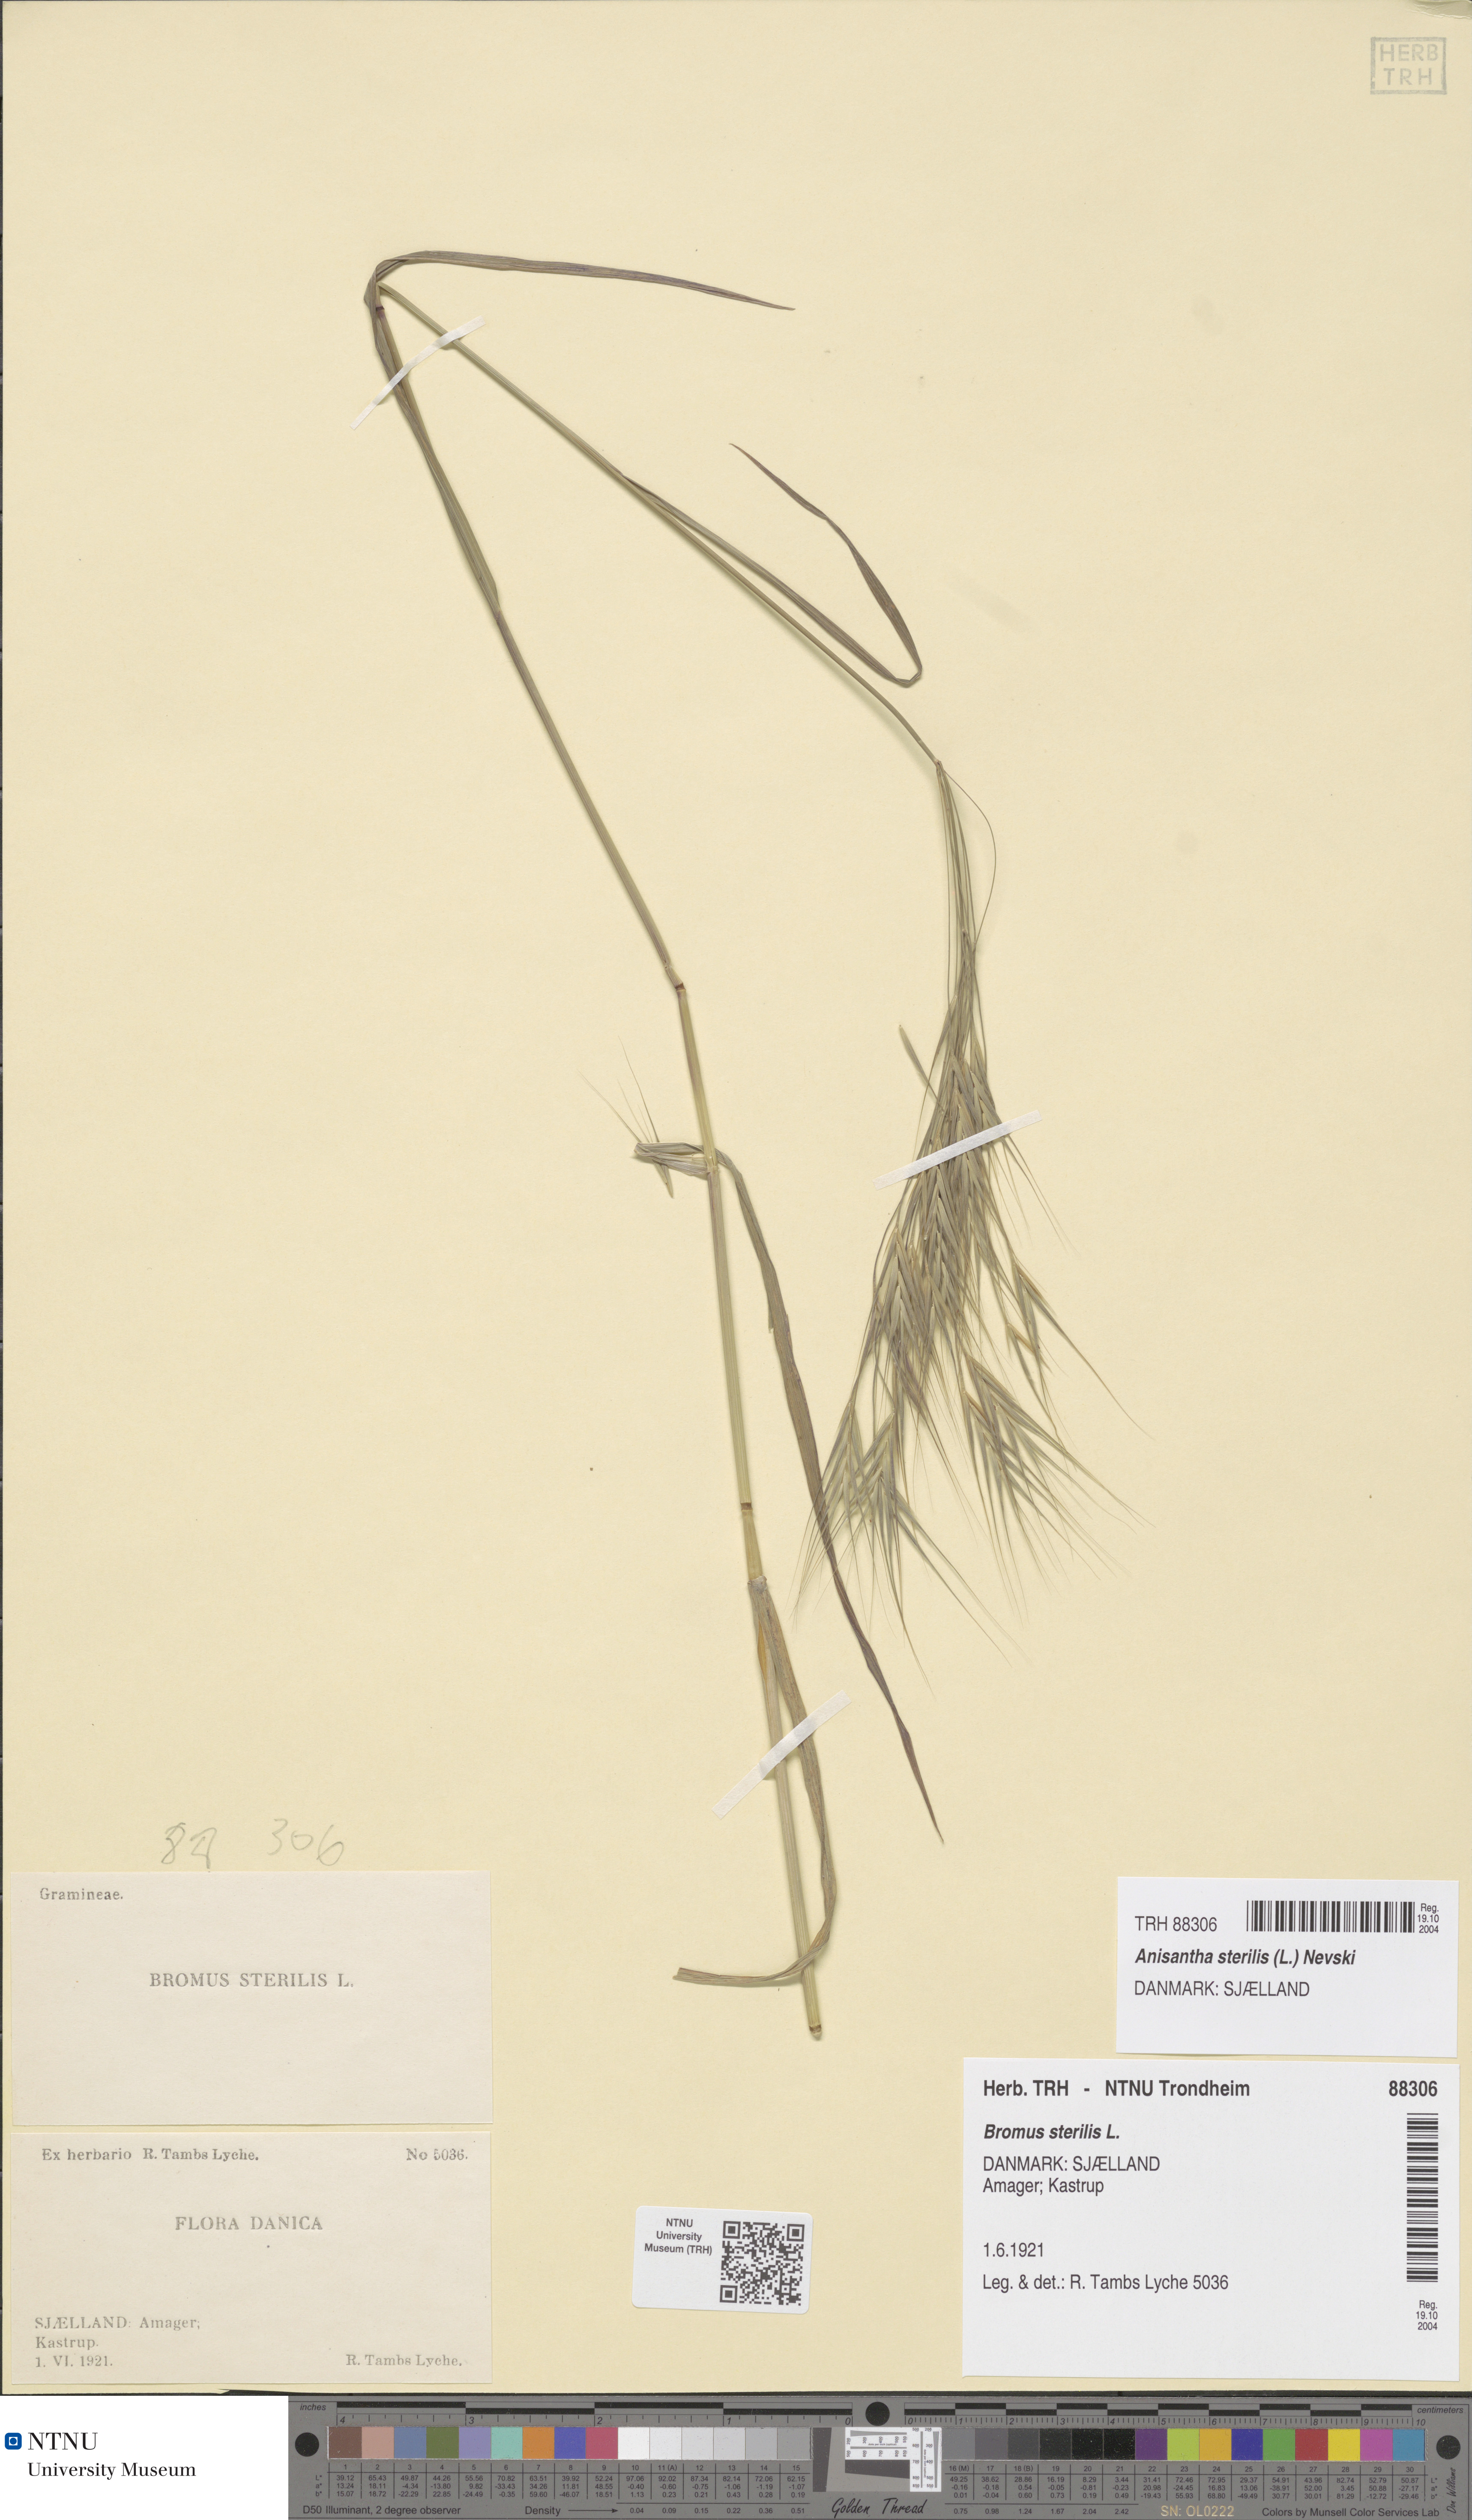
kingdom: Plantae
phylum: Tracheophyta
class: Liliopsida
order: Poales
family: Poaceae
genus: Bromus
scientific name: Bromus sterilis
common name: Poverty brome
